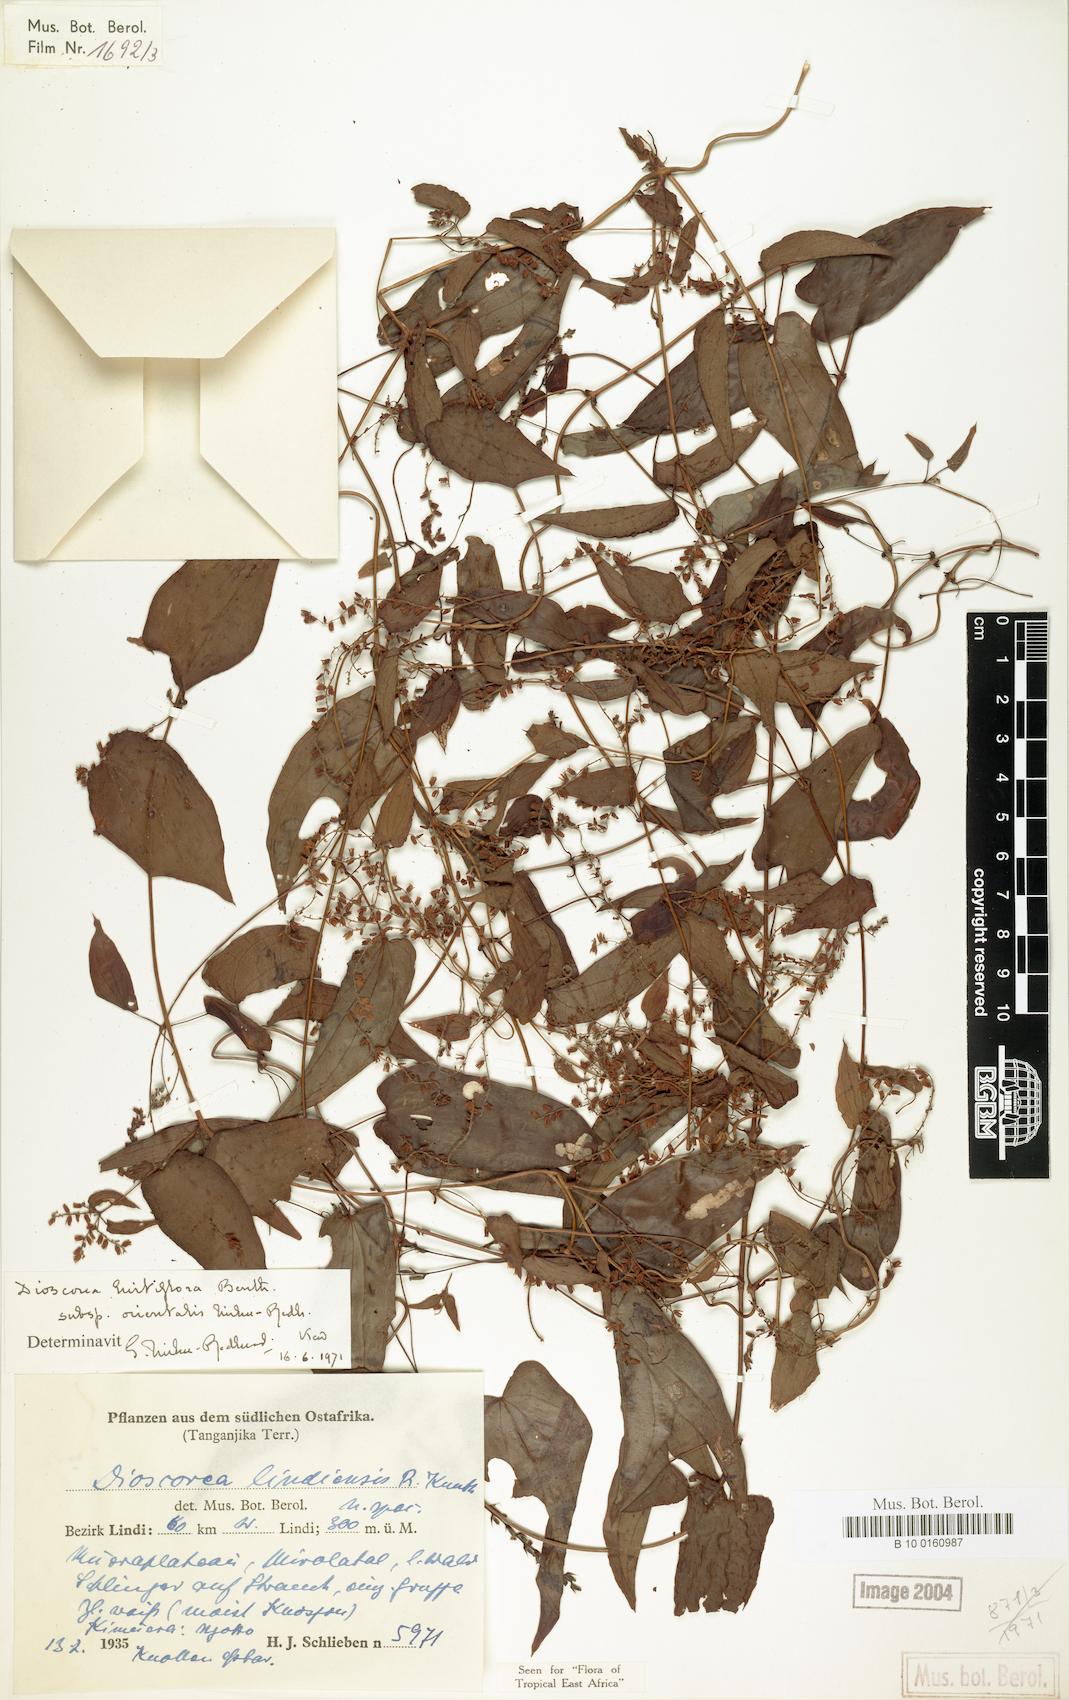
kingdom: Plantae
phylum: Tracheophyta
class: Liliopsida
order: Dioscoreales
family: Dioscoreaceae
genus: Dioscorea
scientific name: Dioscorea hirtiflora
